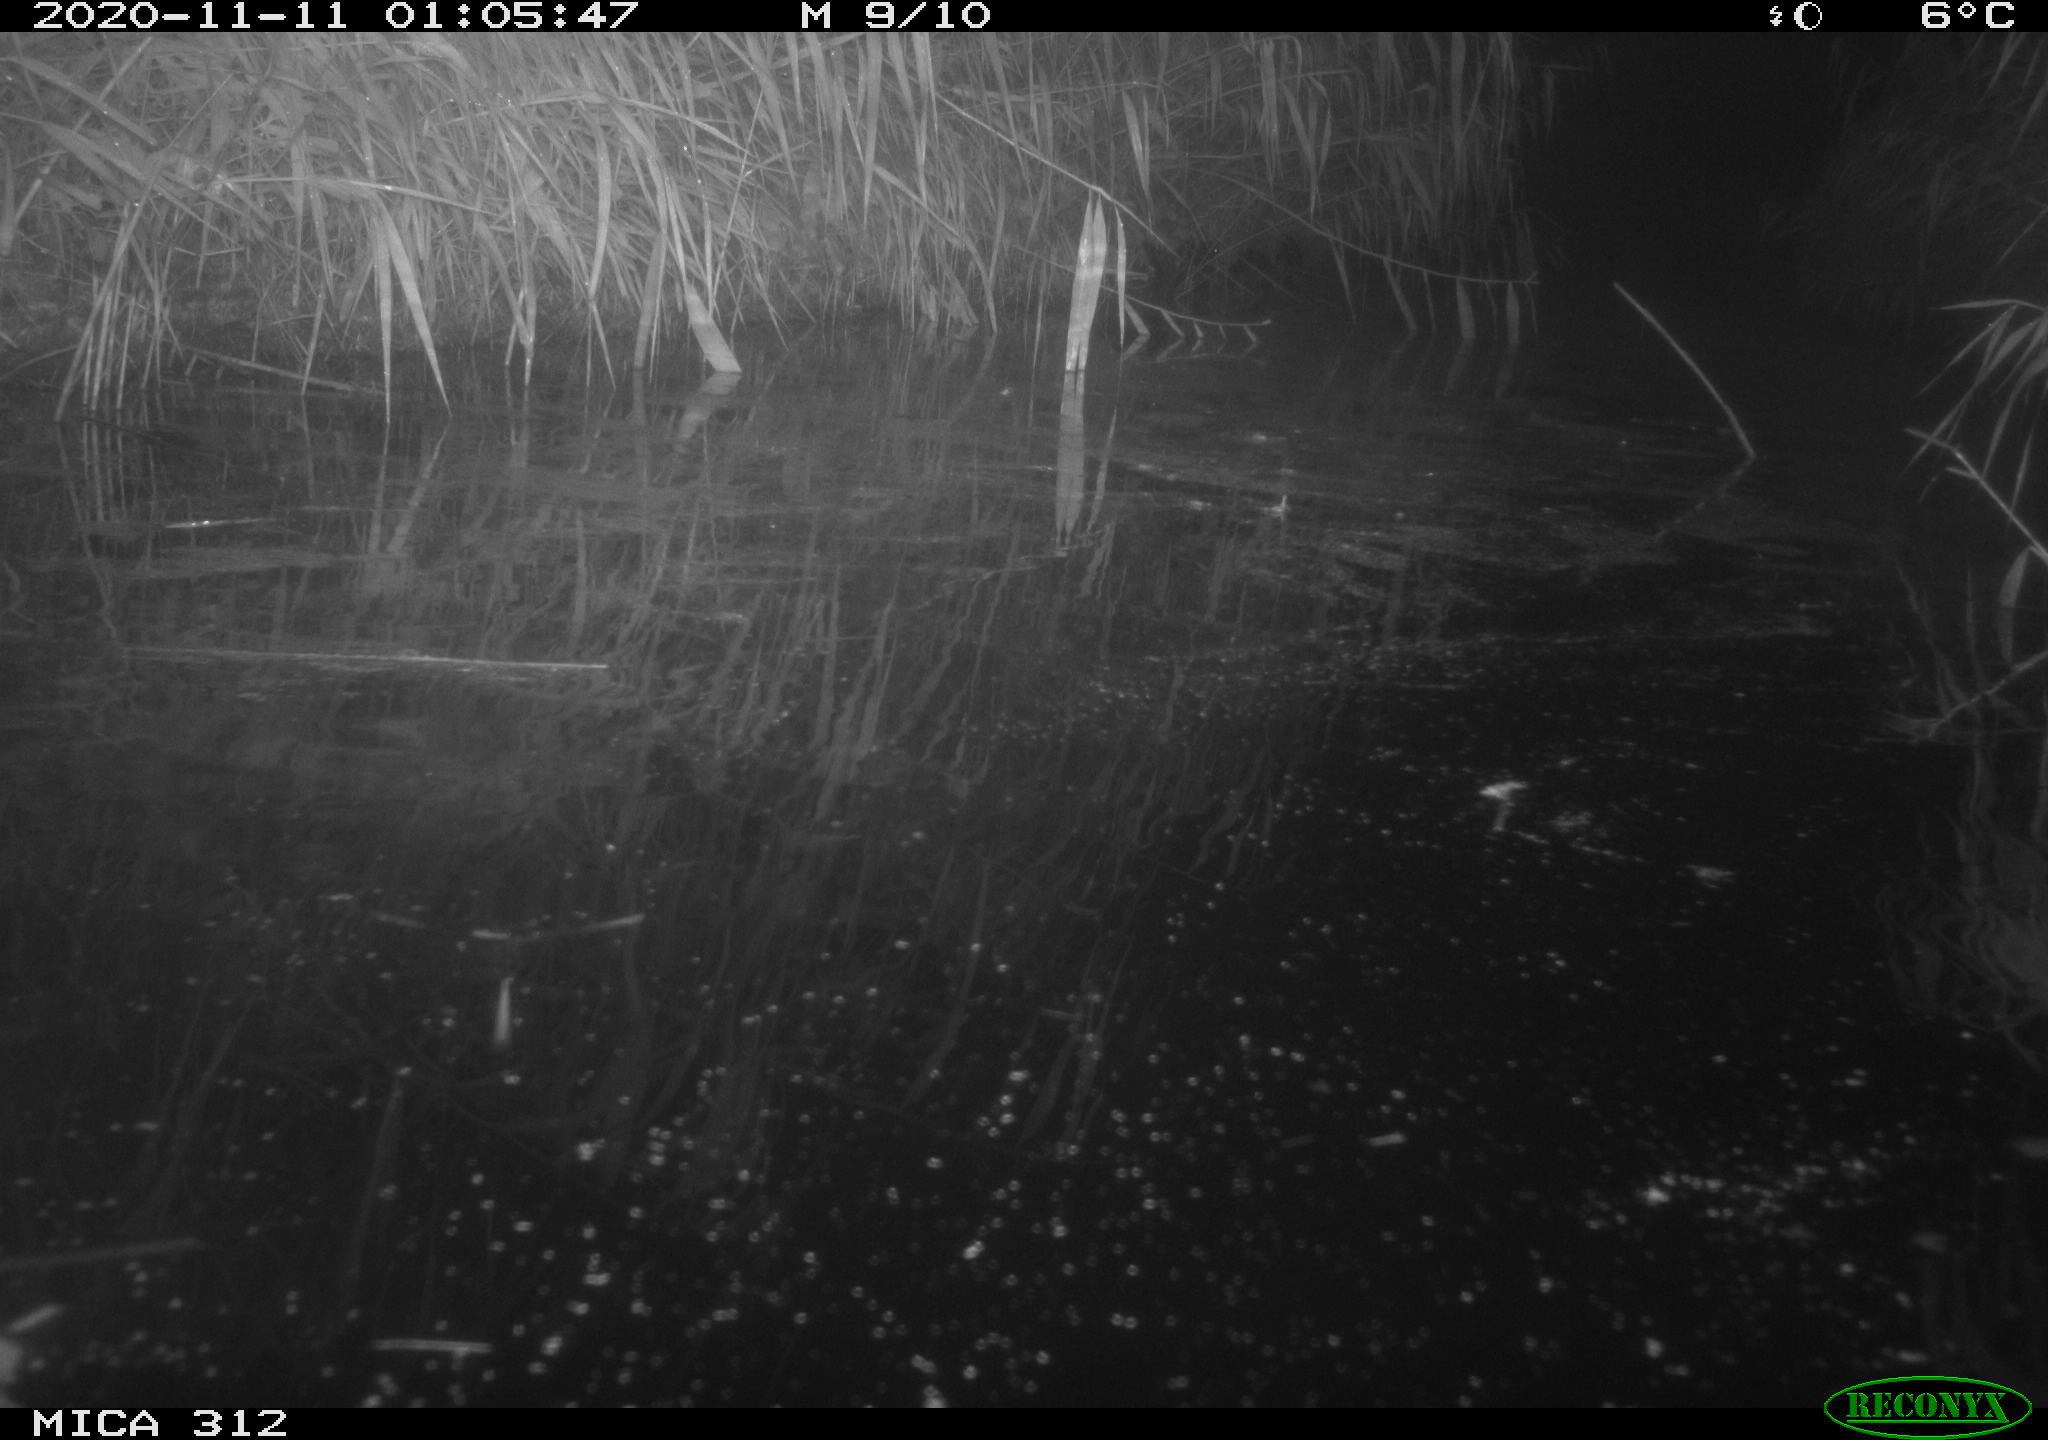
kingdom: Animalia
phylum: Chordata
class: Mammalia
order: Rodentia
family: Muridae
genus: Rattus
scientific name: Rattus norvegicus
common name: Brown rat
